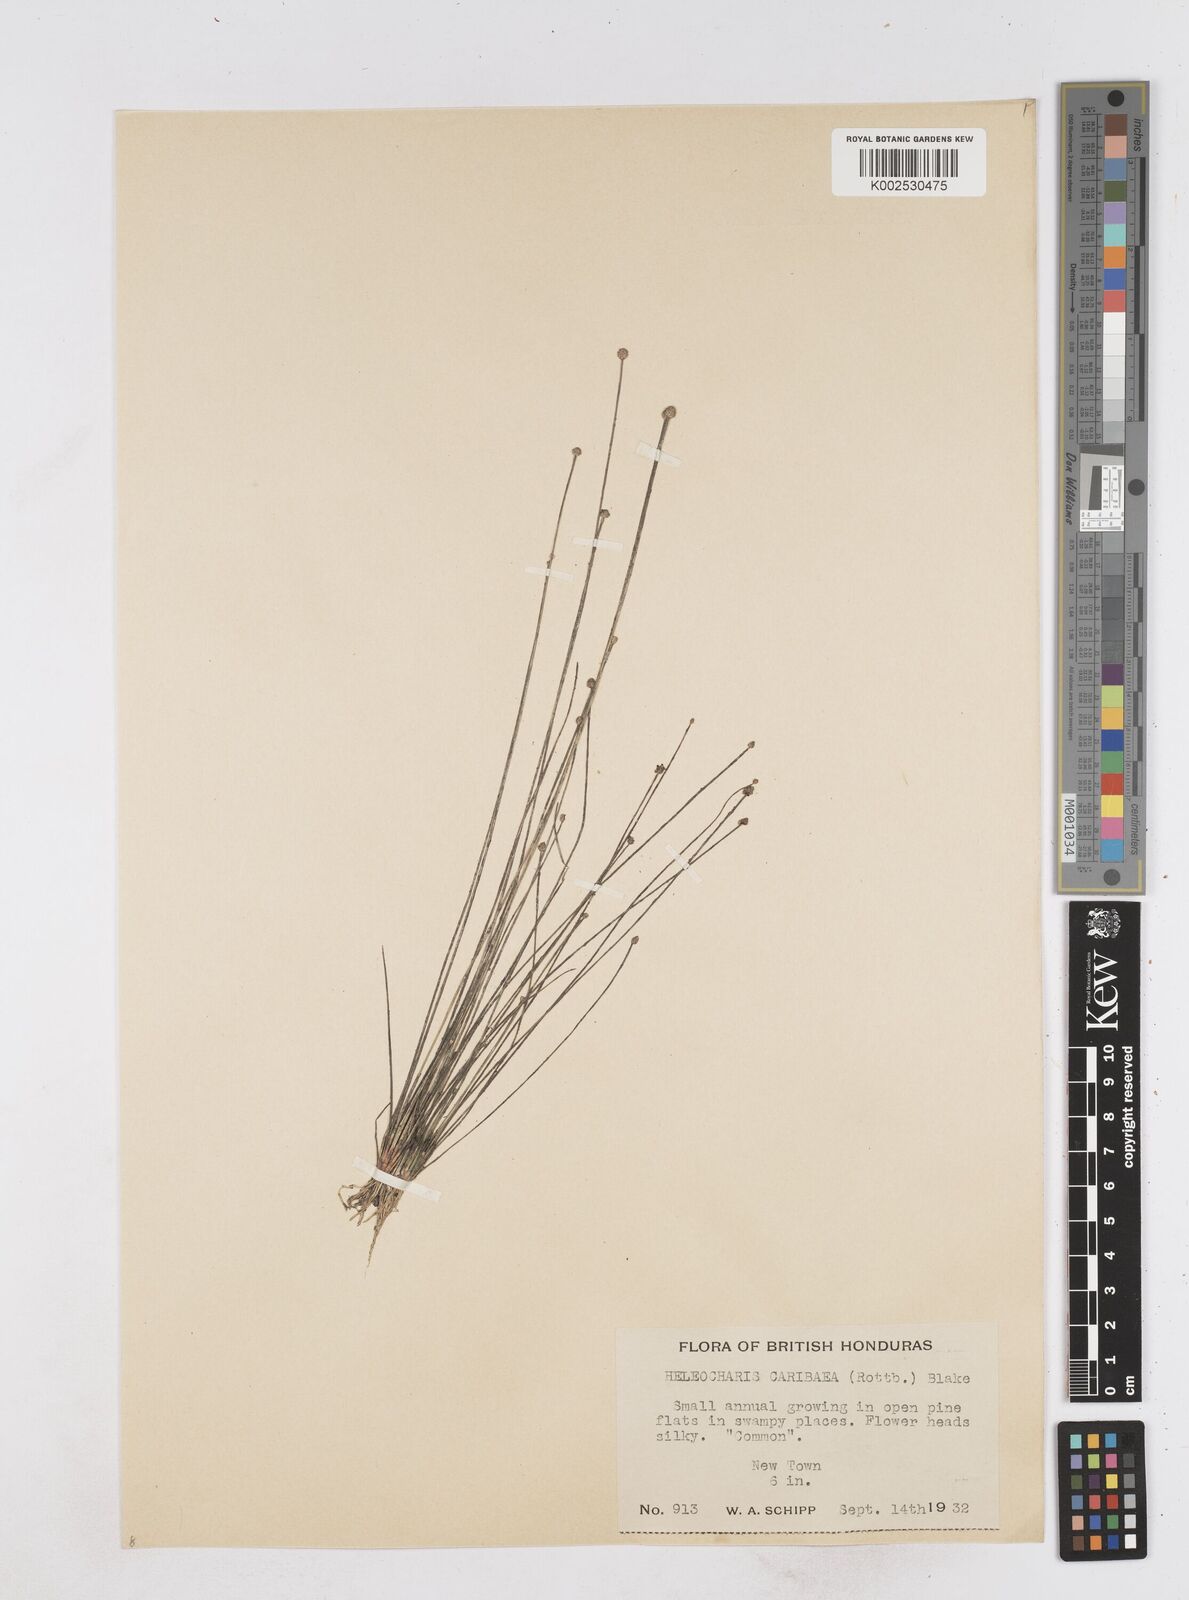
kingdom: Plantae
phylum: Tracheophyta
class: Liliopsida
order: Poales
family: Cyperaceae
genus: Eleocharis
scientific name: Eleocharis geniculata
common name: Canada spikesedge
